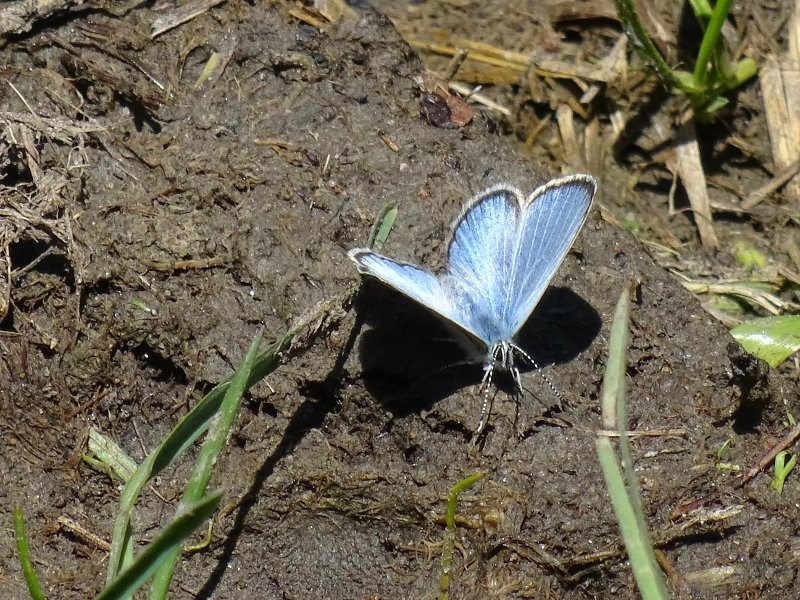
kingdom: Animalia
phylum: Arthropoda
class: Insecta
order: Lepidoptera
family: Lycaenidae
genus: Glaucopsyche
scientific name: Glaucopsyche lygdamus
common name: Silvery Blue
